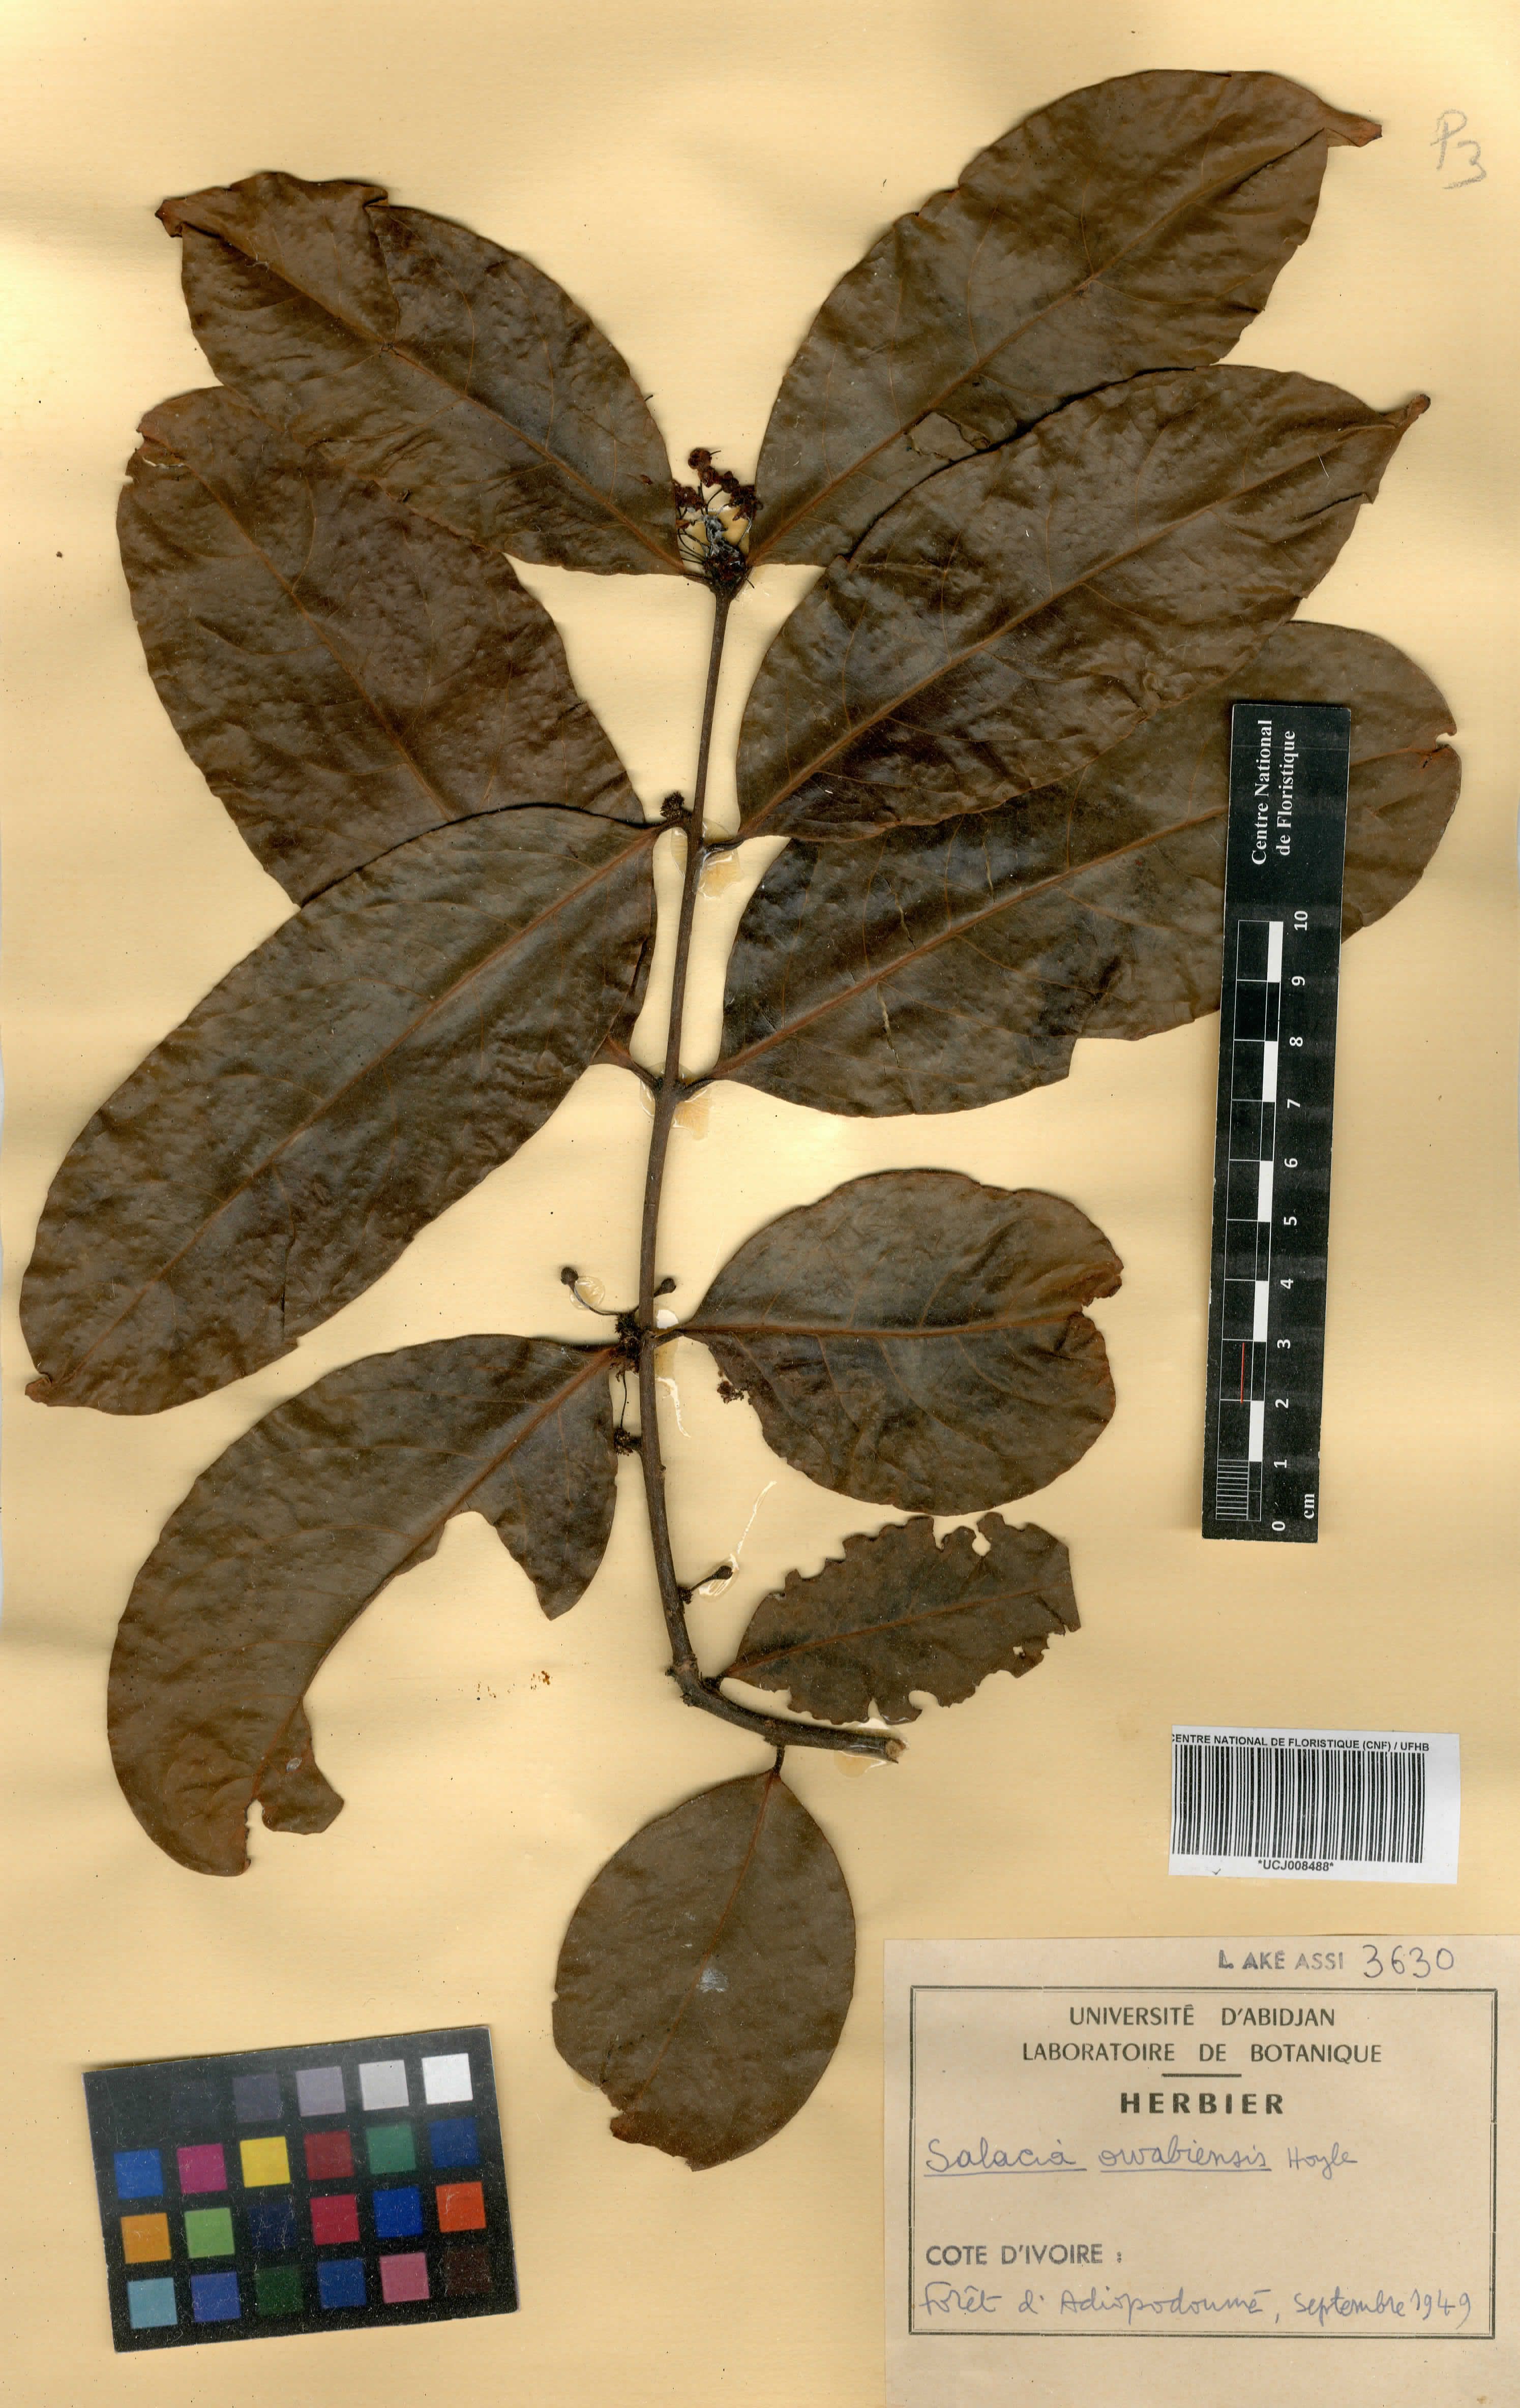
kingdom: Plantae
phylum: Tracheophyta
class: Magnoliopsida
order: Celastrales
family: Celastraceae
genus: Salacia
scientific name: Salacia owabiensis
